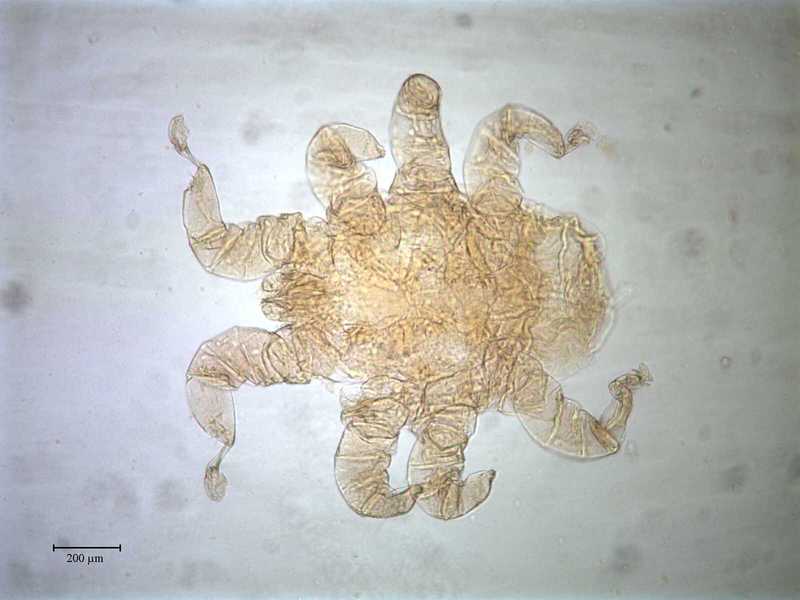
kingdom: Animalia
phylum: Arthropoda
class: Arachnida
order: Mesostigmata
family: Rhinonyssidae
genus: Sternostoma
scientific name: Sternostoma technaui
